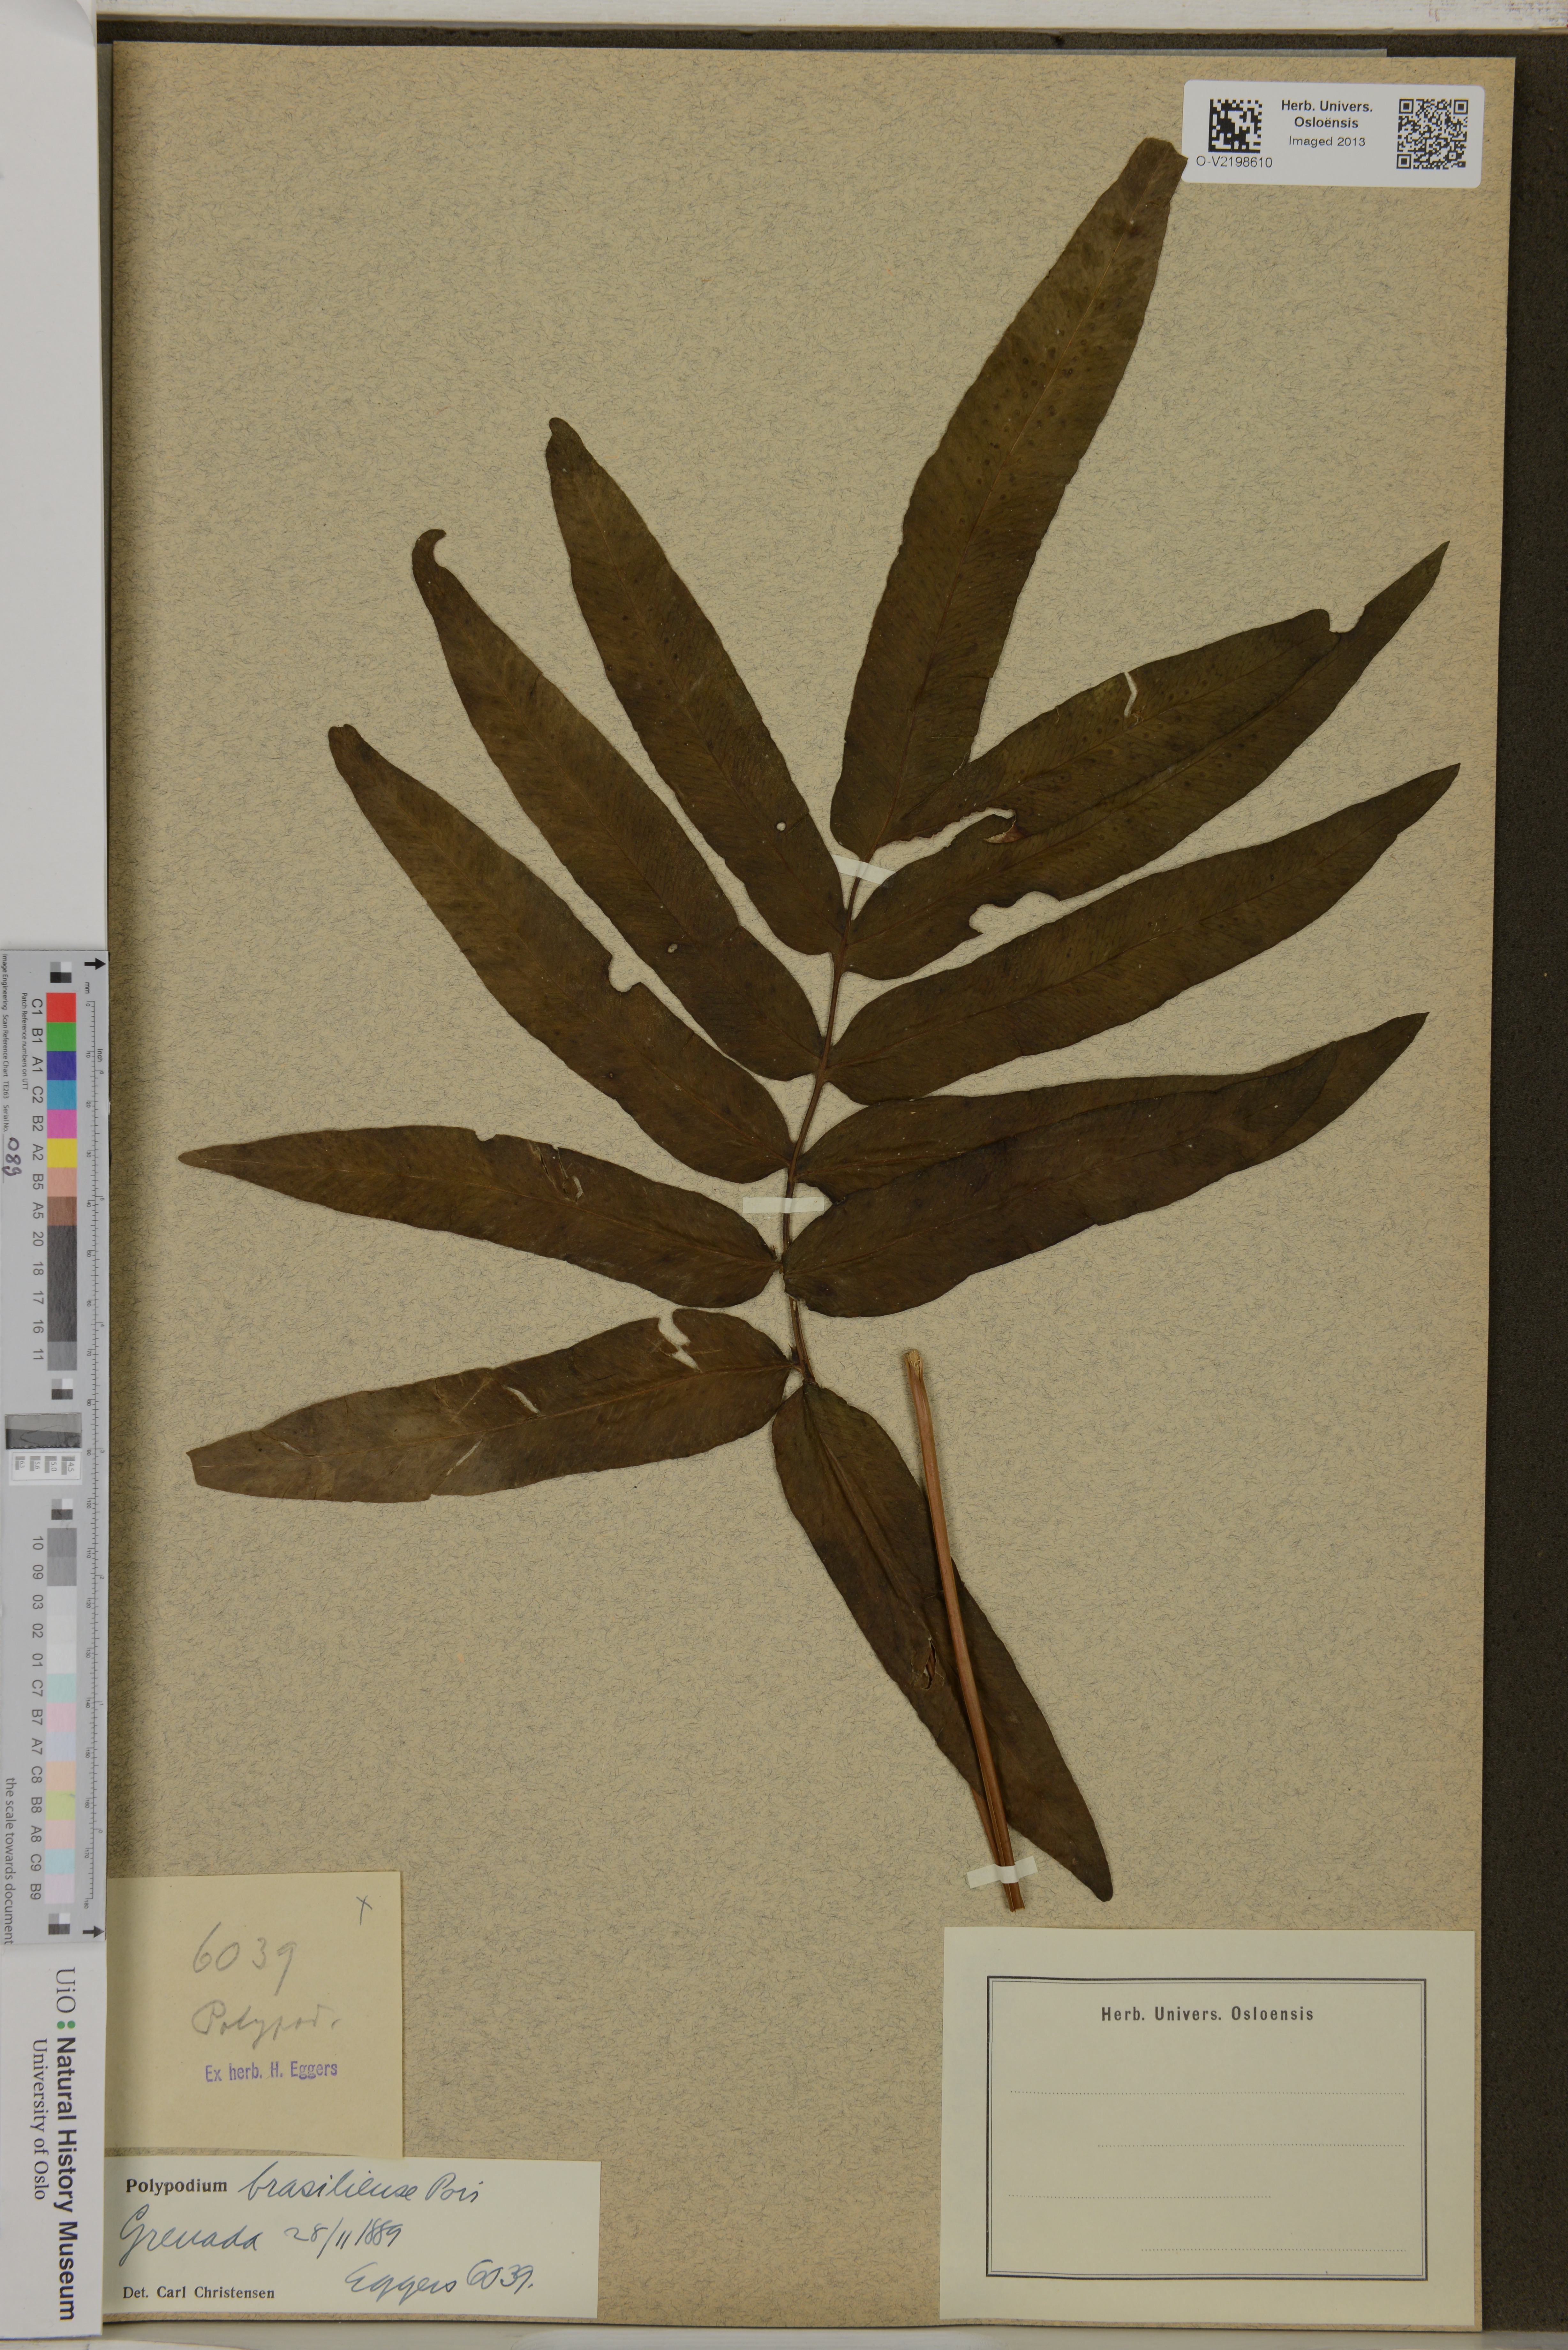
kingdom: Plantae
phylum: Tracheophyta
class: Polypodiopsida
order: Polypodiales
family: Polypodiaceae
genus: Serpocaulon
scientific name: Serpocaulon triseriale
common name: Angle-vein fern
